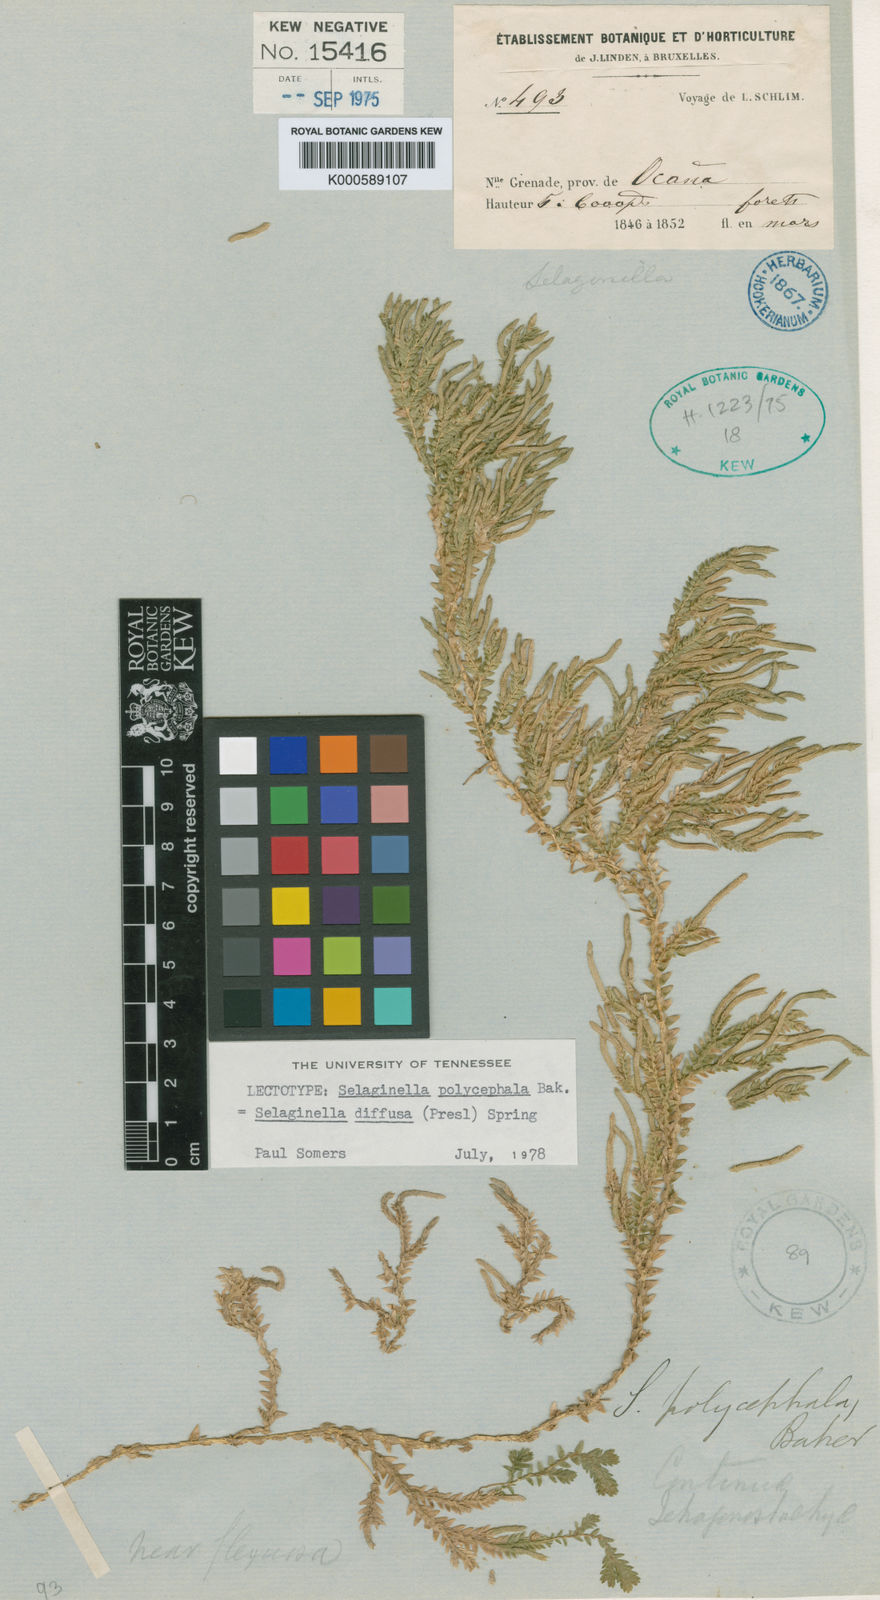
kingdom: Plantae
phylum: Tracheophyta
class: Lycopodiopsida
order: Selaginellales
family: Selaginellaceae
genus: Selaginella
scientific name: Selaginella diffusa
